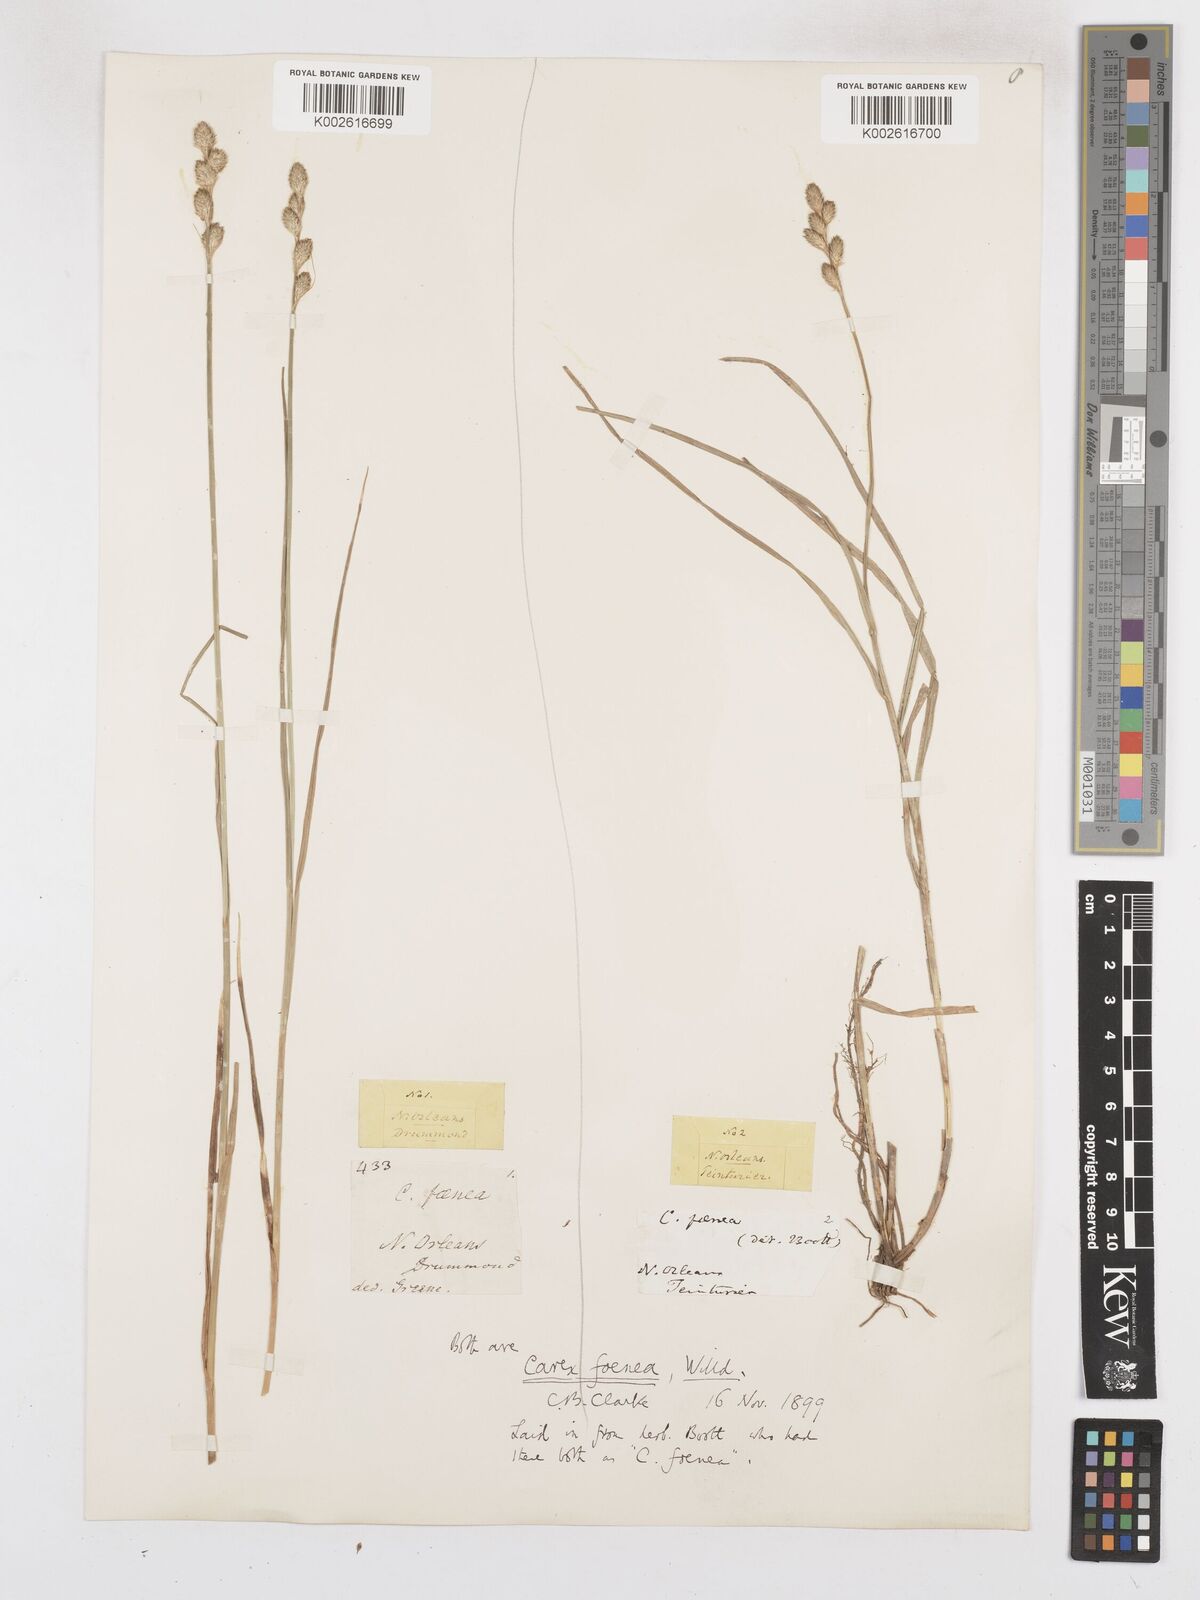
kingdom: Plantae
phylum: Tracheophyta
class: Liliopsida
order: Poales
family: Cyperaceae
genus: Carex
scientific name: Carex argyrantha
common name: Silvery-flowered sedge
